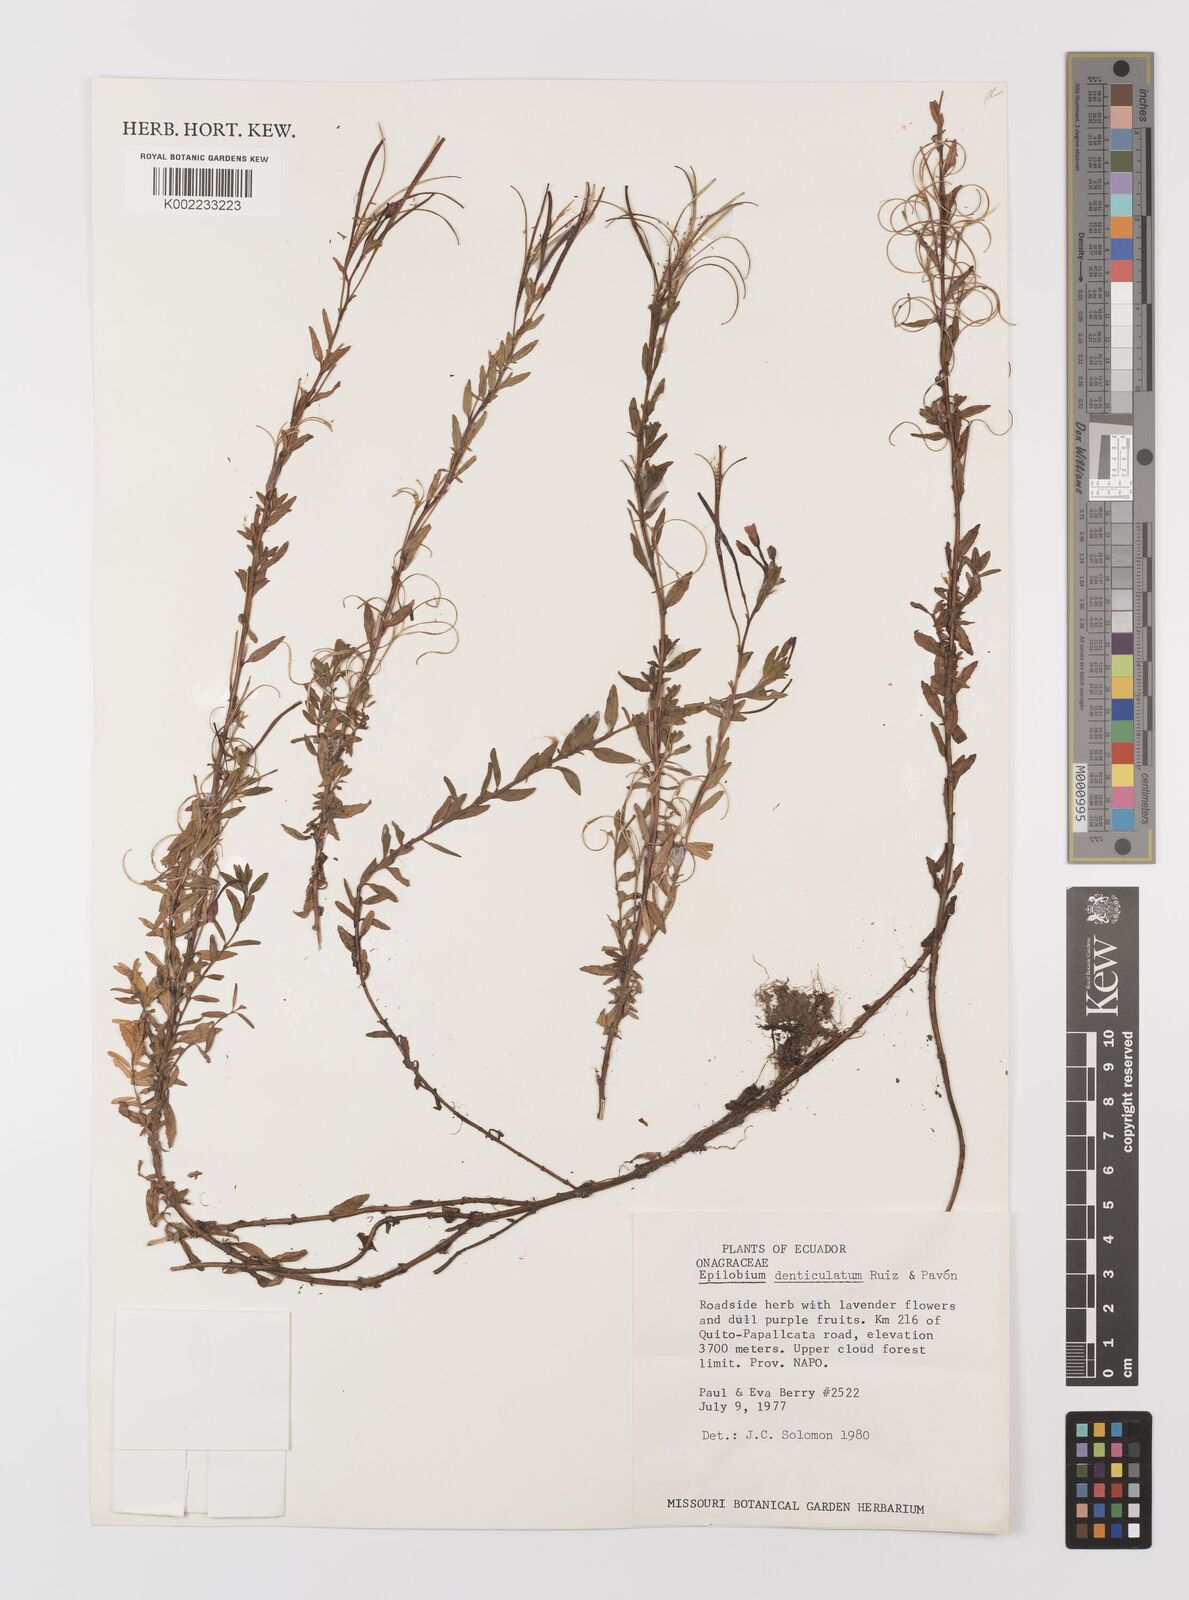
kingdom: Plantae
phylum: Tracheophyta
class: Magnoliopsida
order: Myrtales
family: Onagraceae
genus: Epilobium
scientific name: Epilobium denticulatum
